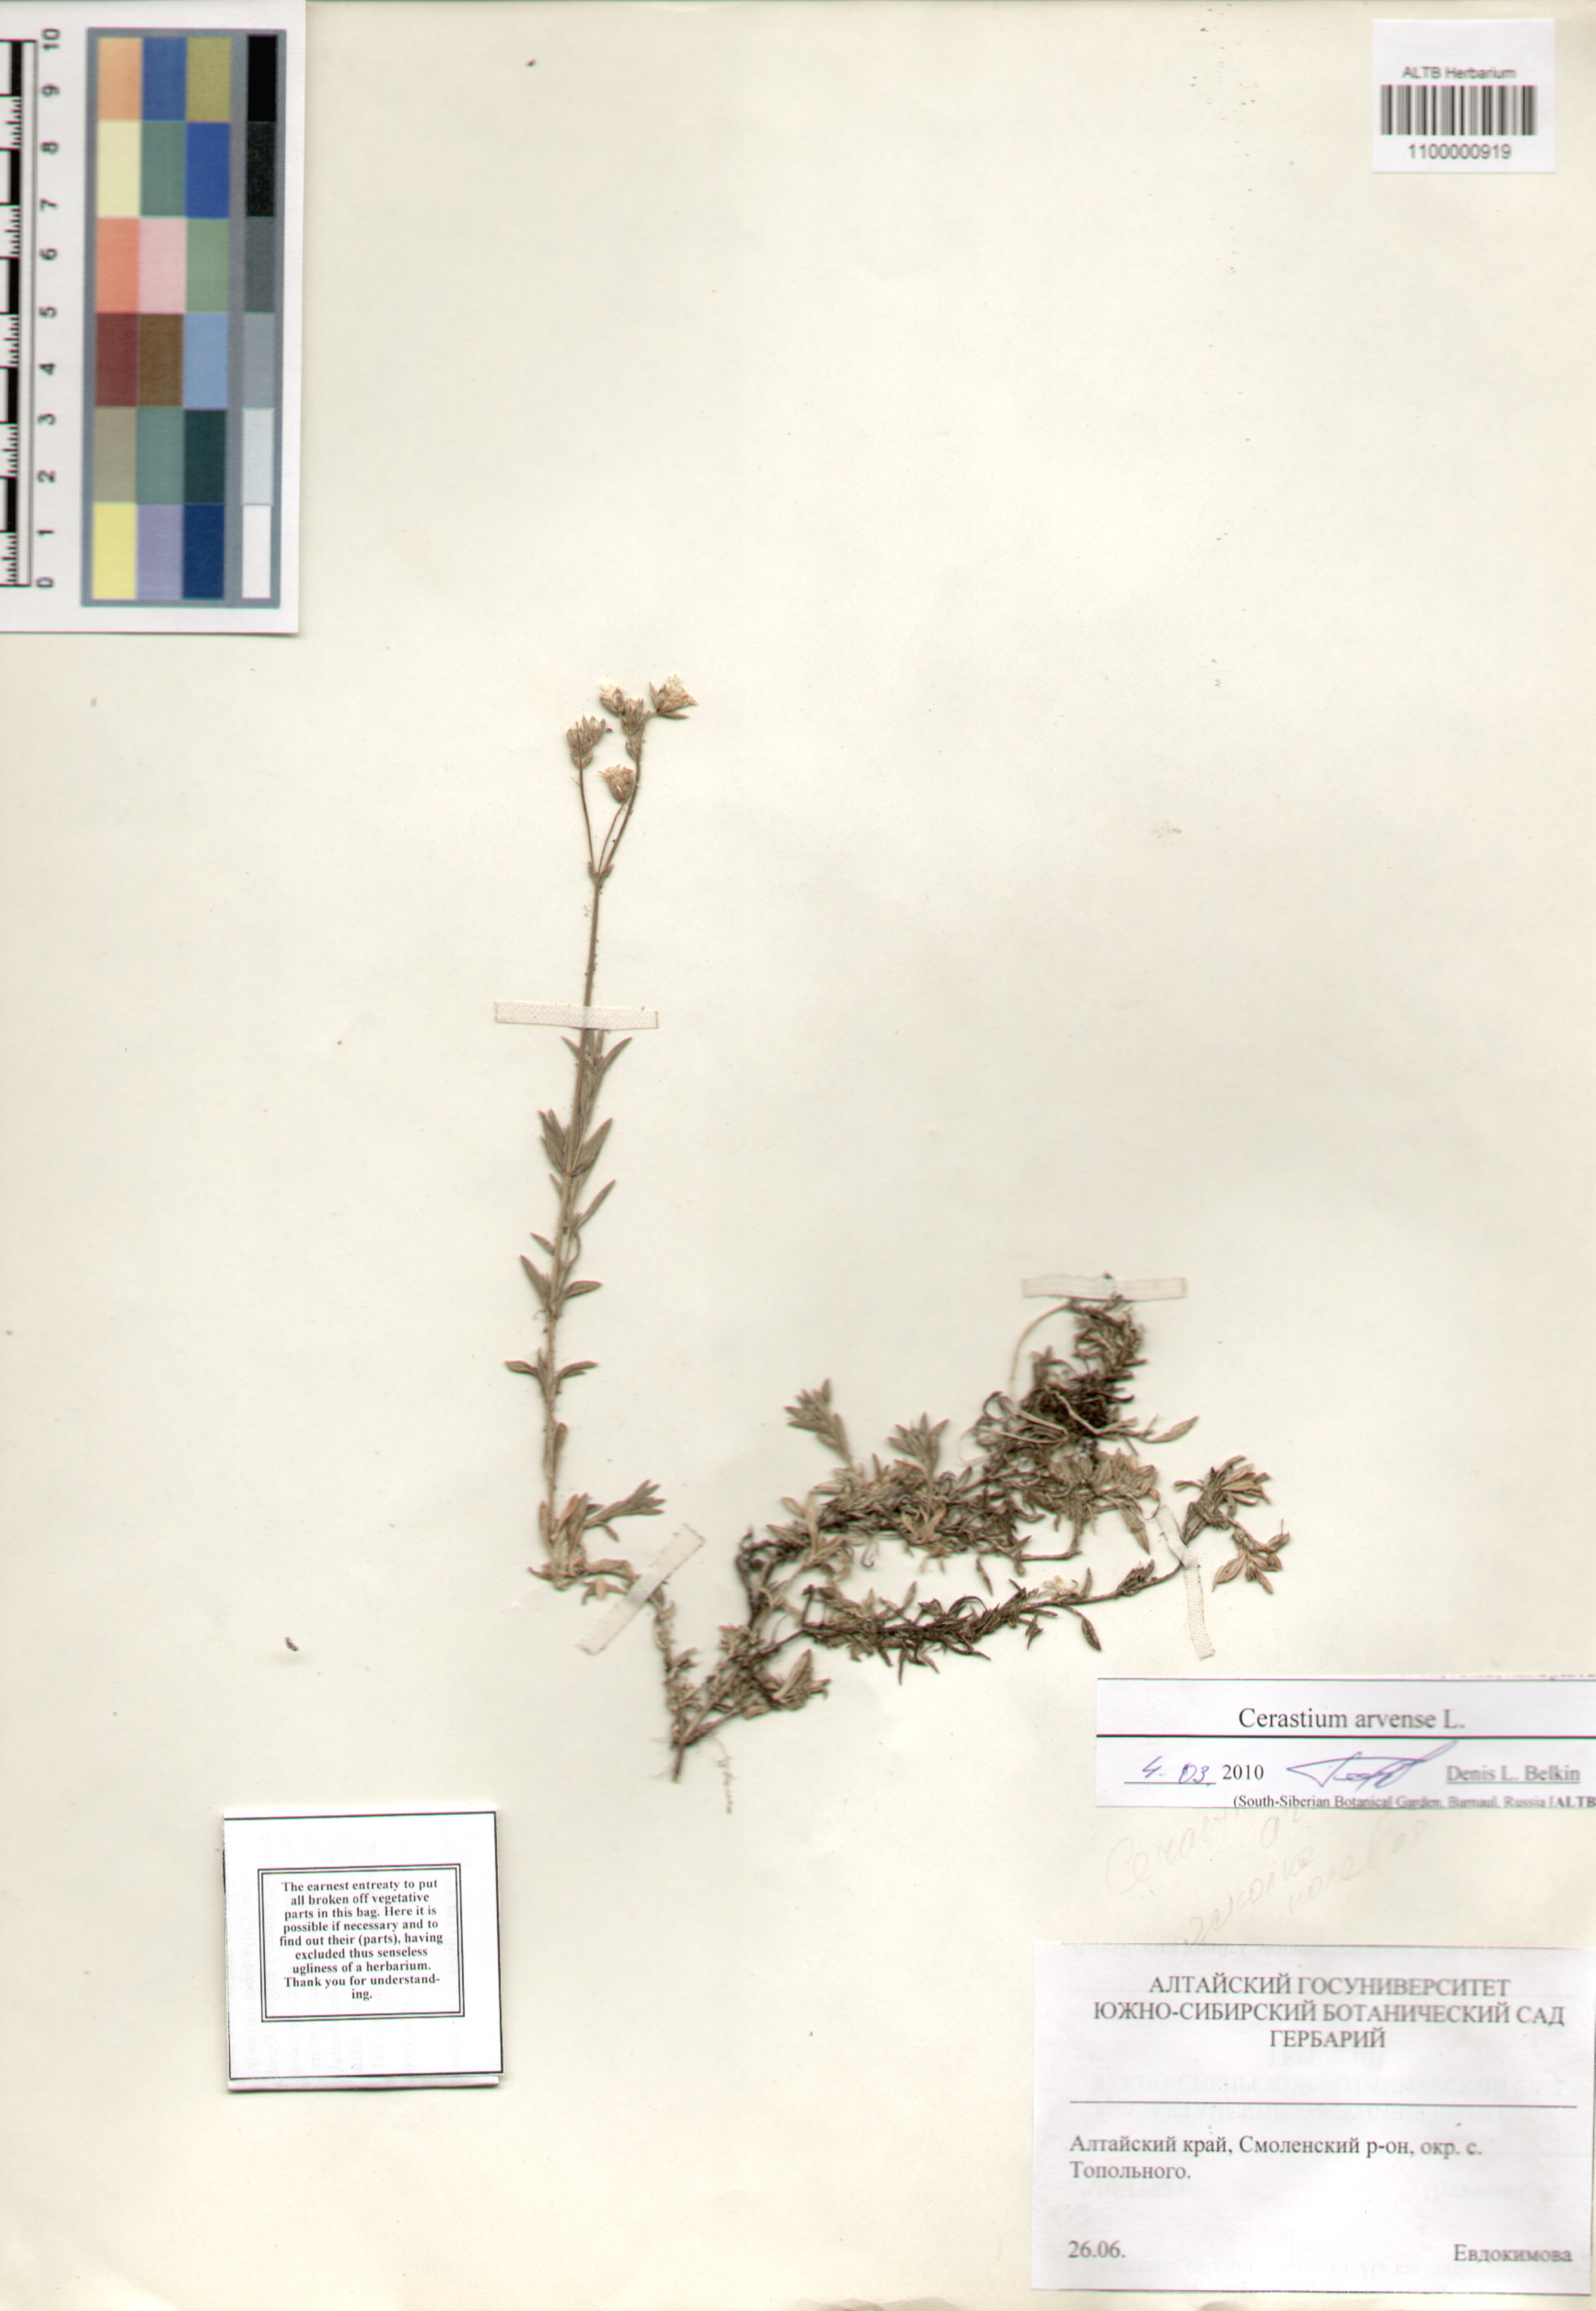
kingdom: Plantae
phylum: Tracheophyta
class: Magnoliopsida
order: Caryophyllales
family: Caryophyllaceae
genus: Cerastium
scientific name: Cerastium arvense
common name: Field mouse-ear
